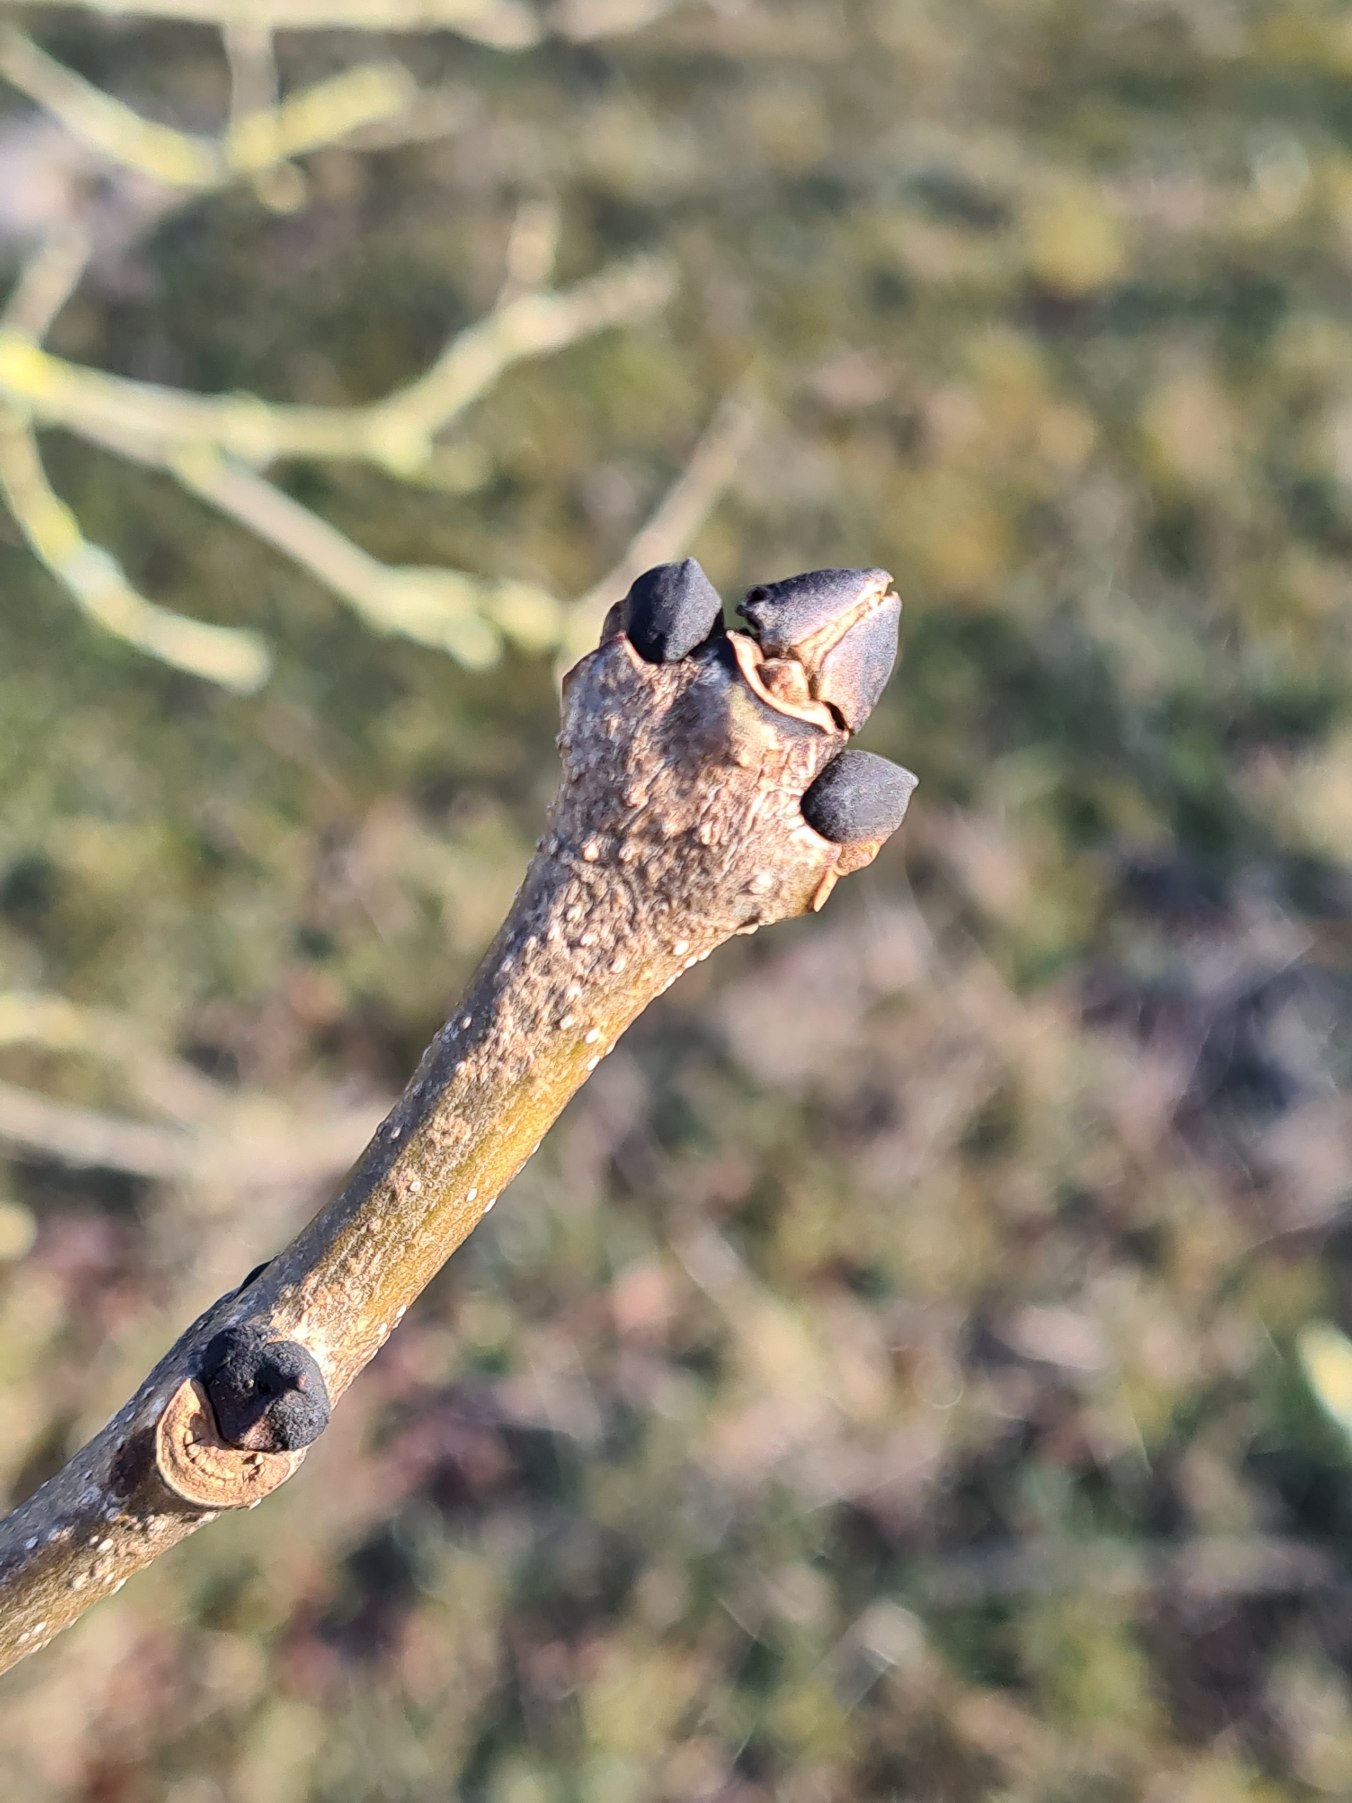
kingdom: Plantae
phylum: Tracheophyta
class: Magnoliopsida
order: Lamiales
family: Oleaceae
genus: Fraxinus
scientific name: Fraxinus excelsior
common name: Ask
